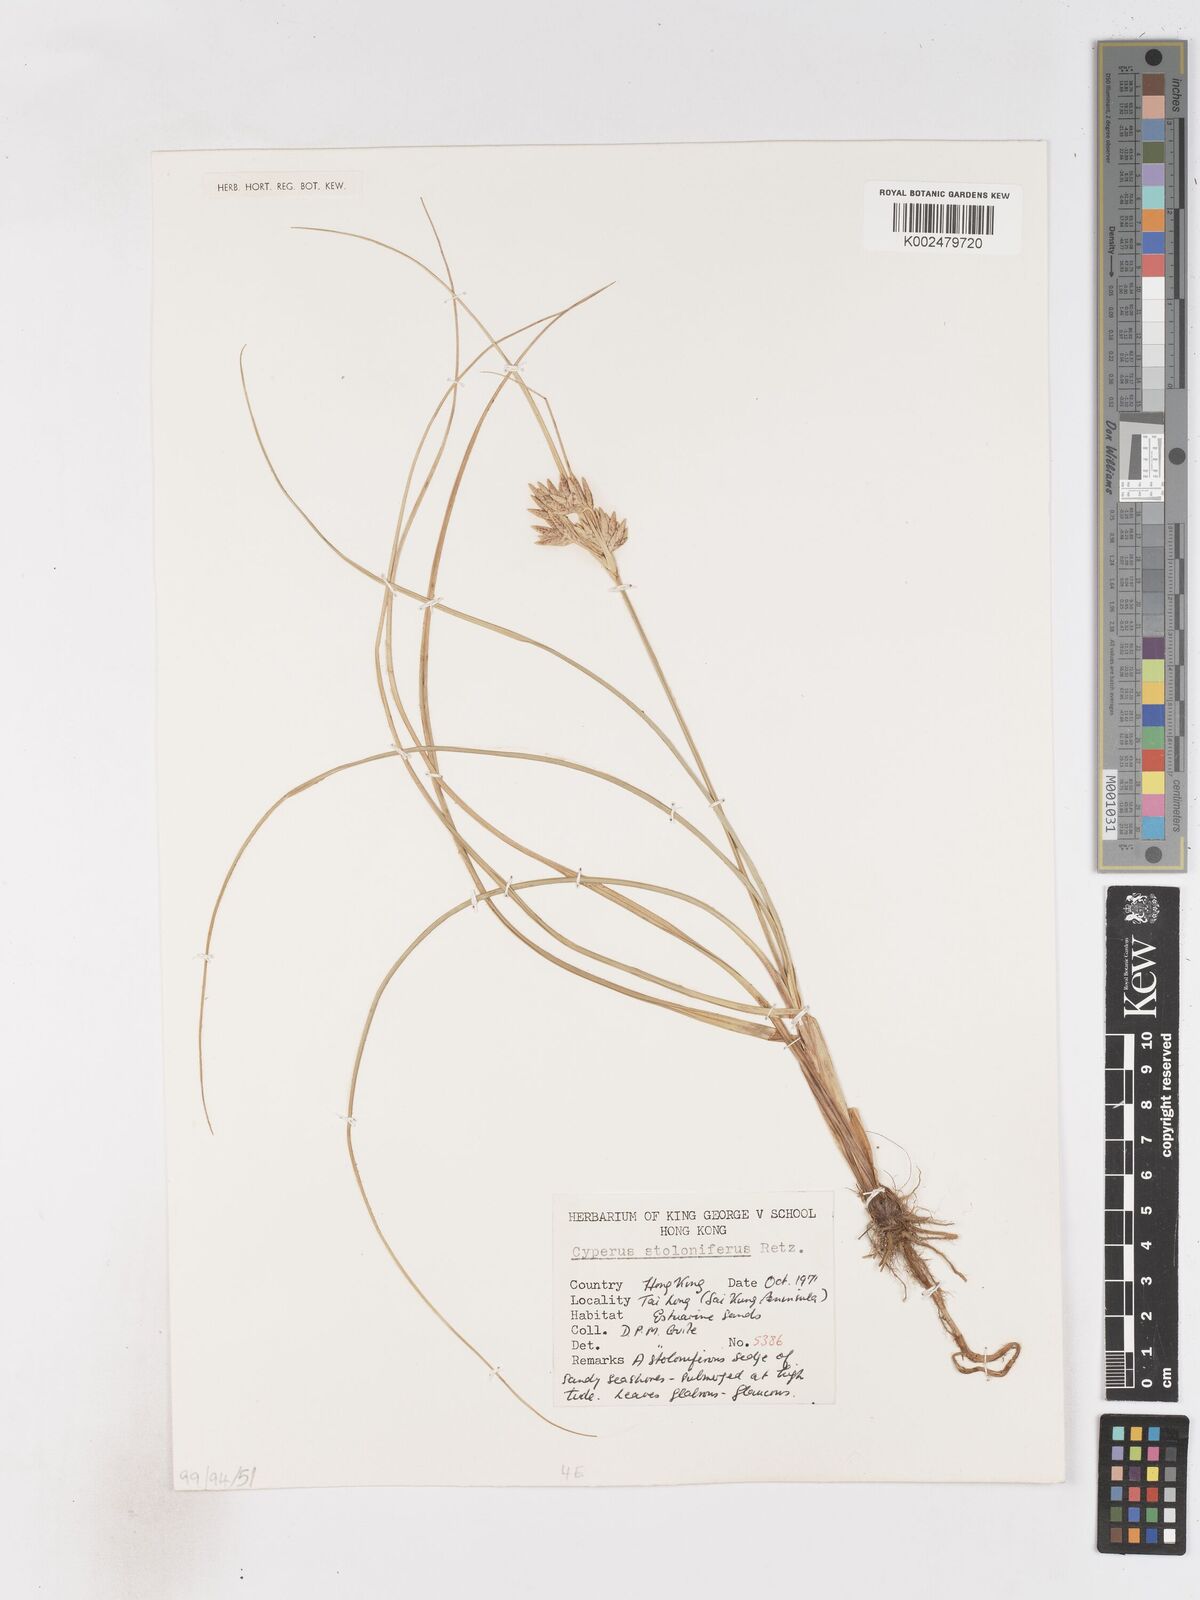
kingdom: Plantae
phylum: Tracheophyta
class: Liliopsida
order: Poales
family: Cyperaceae
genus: Cyperus
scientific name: Cyperus stolonifer
